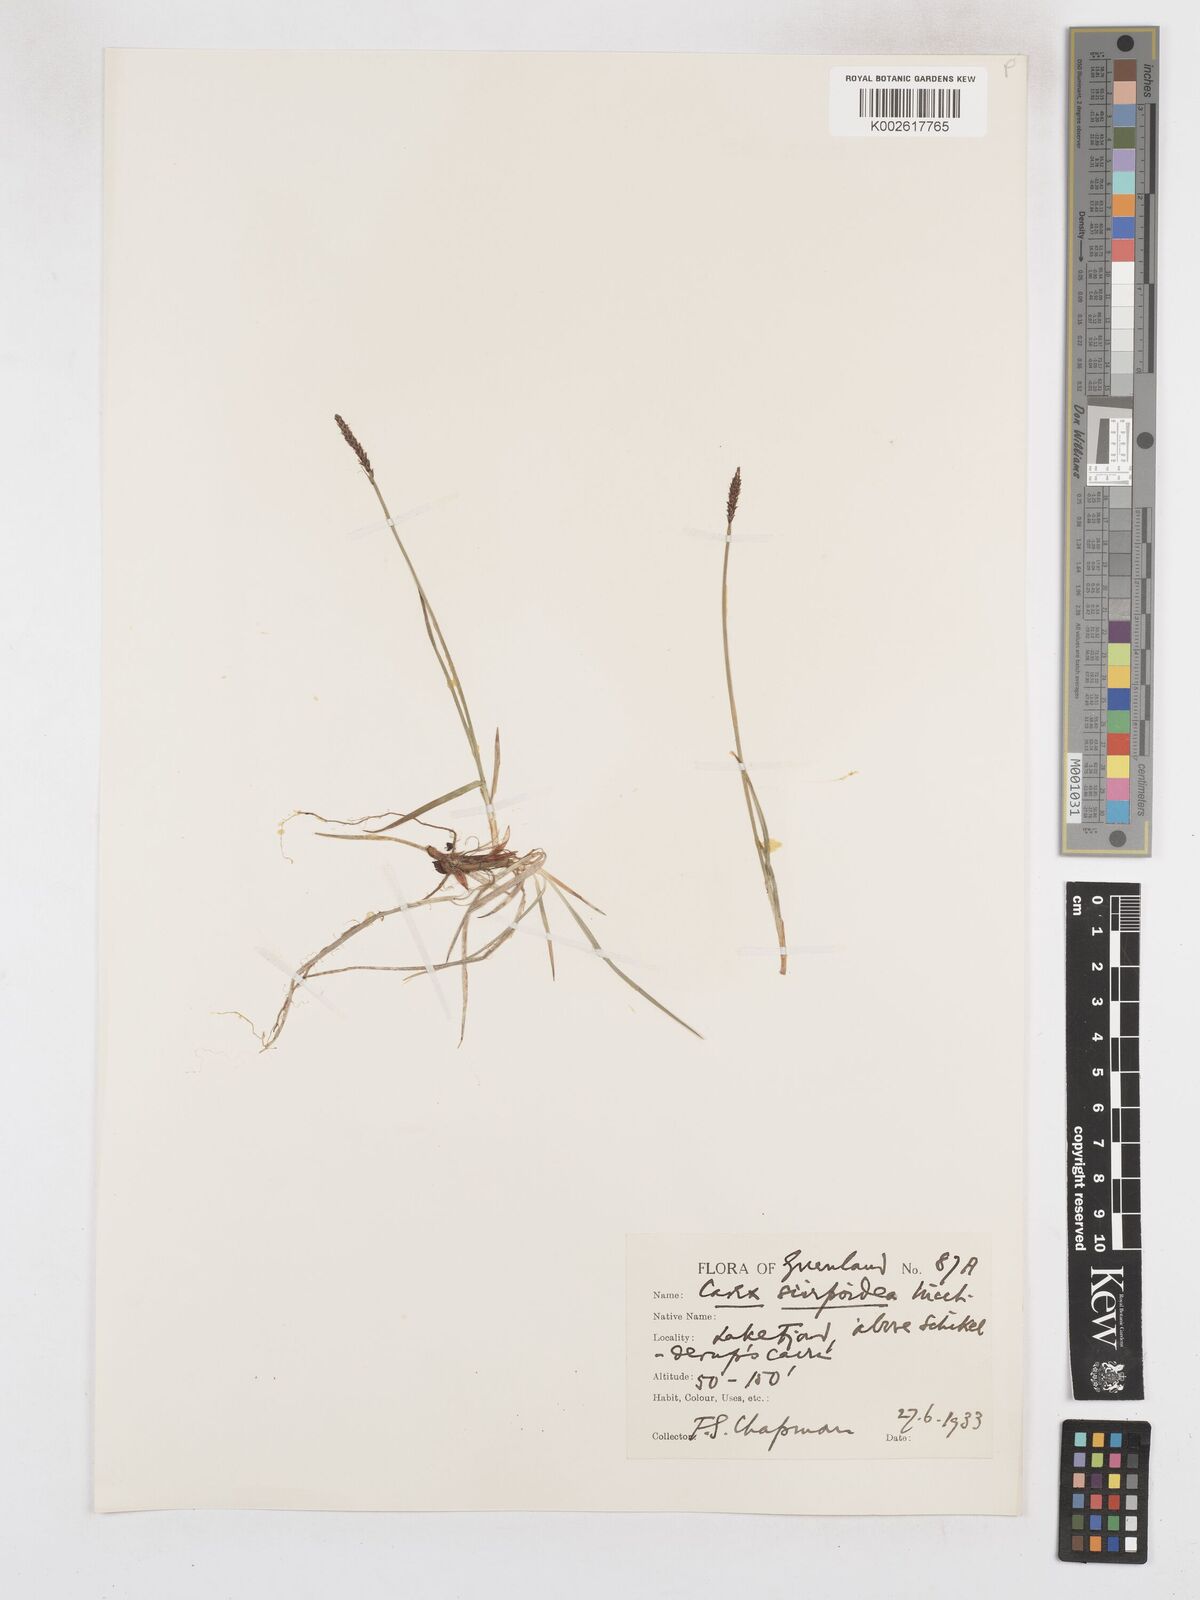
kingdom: Plantae
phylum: Tracheophyta
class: Liliopsida
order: Poales
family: Cyperaceae
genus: Carex
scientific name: Carex scirpoidea
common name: Canada single-spike sedge
